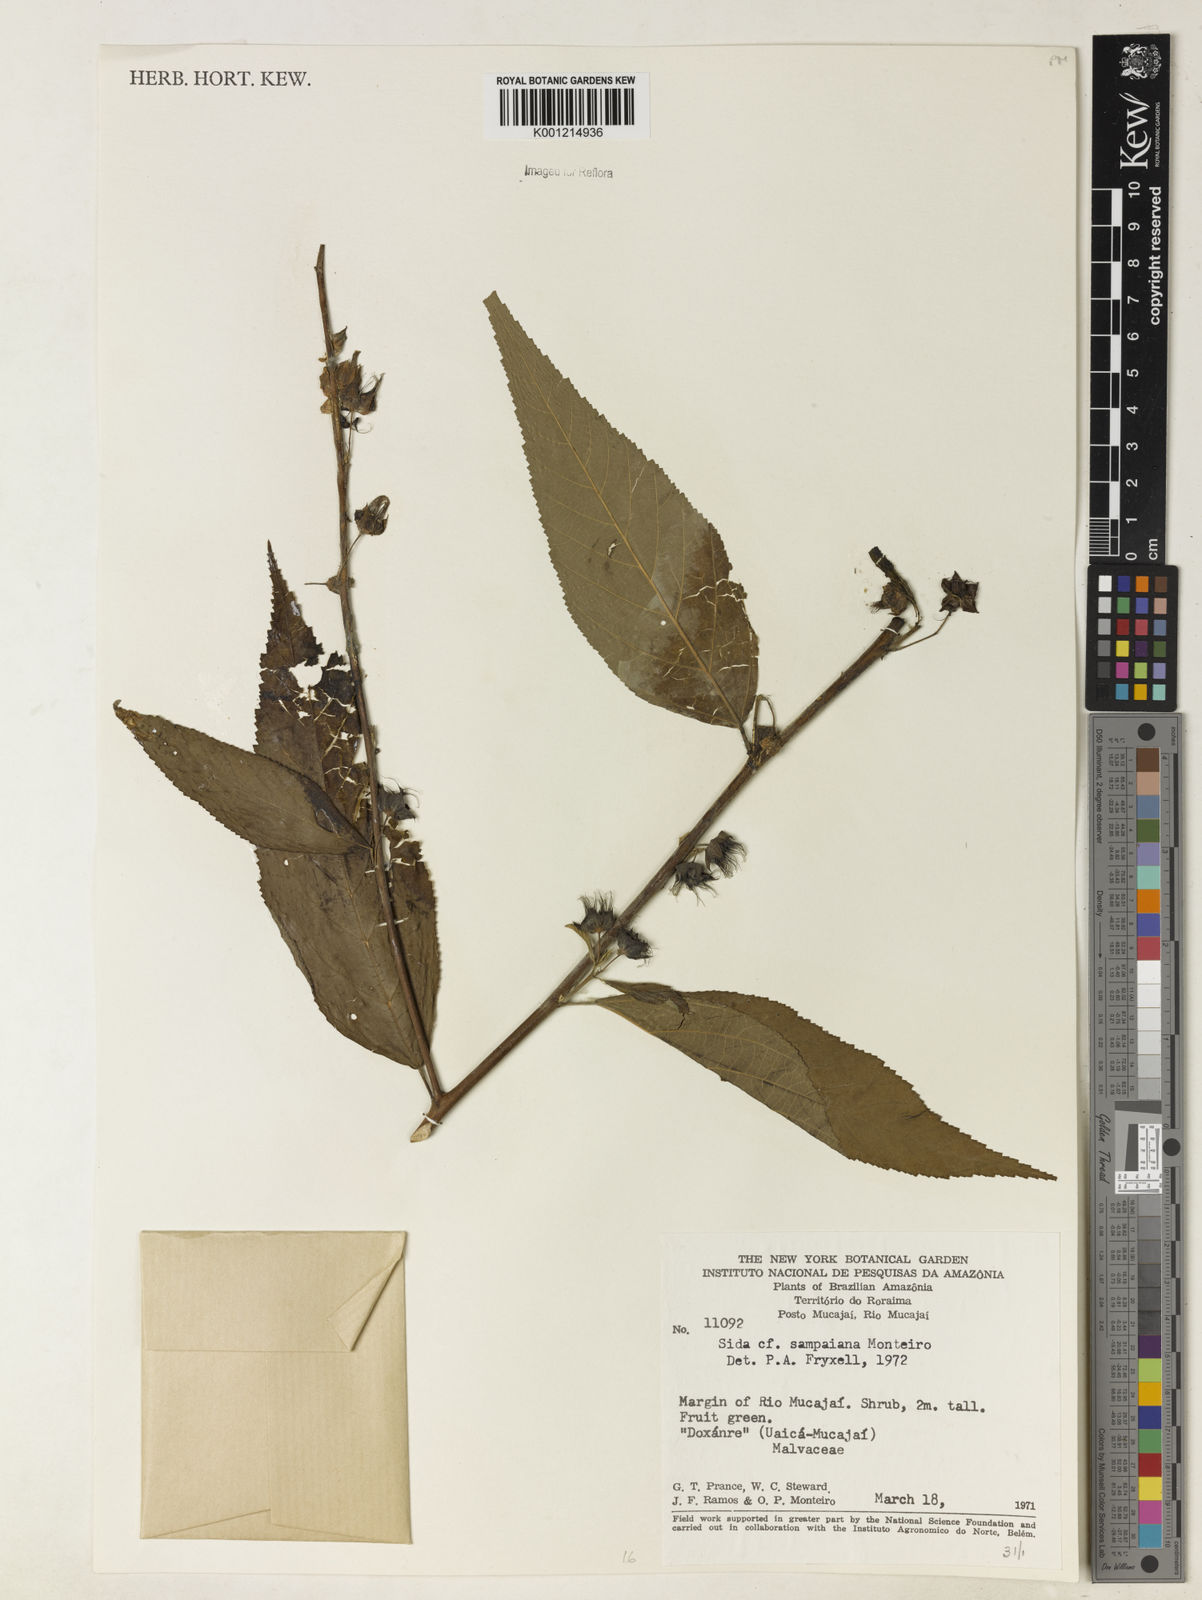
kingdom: Plantae
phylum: Tracheophyta
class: Magnoliopsida
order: Malvales
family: Malvaceae
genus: Sida
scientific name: Sida sampaiana
